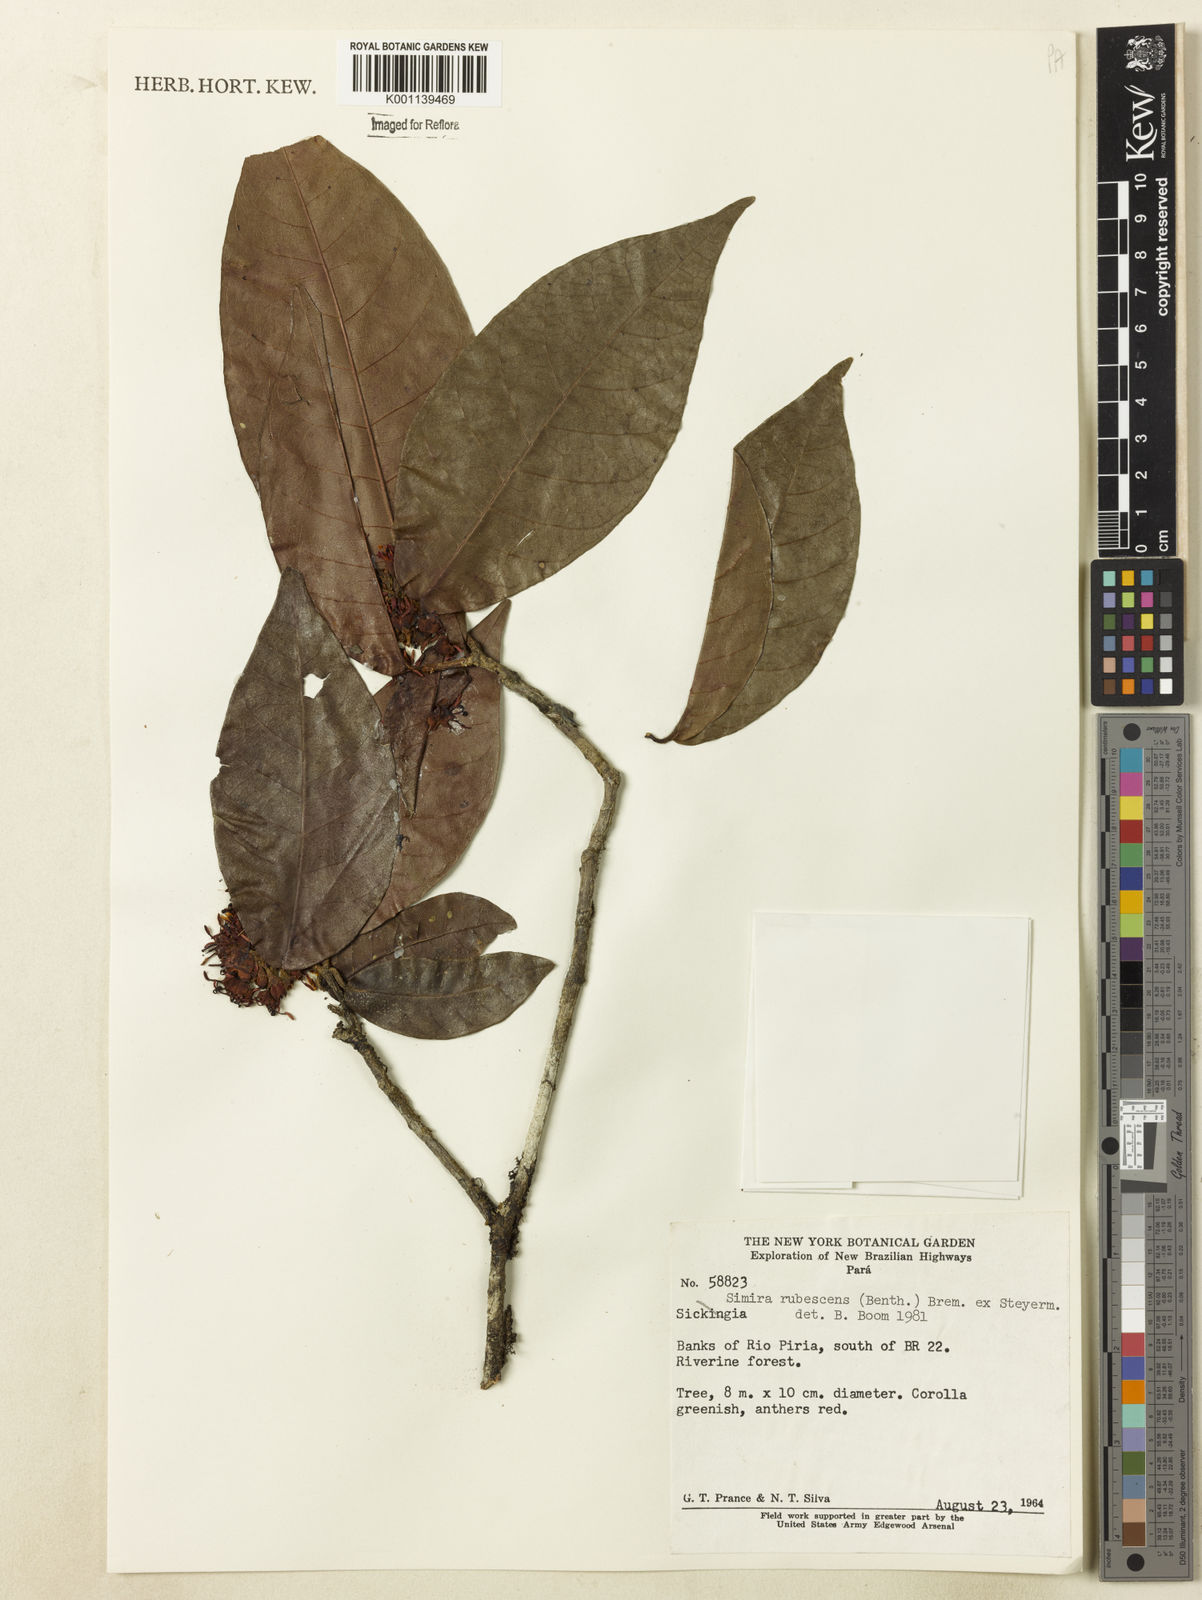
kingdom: Plantae
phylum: Tracheophyta
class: Magnoliopsida
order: Gentianales
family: Rubiaceae
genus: Simira
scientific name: Simira rubescens
